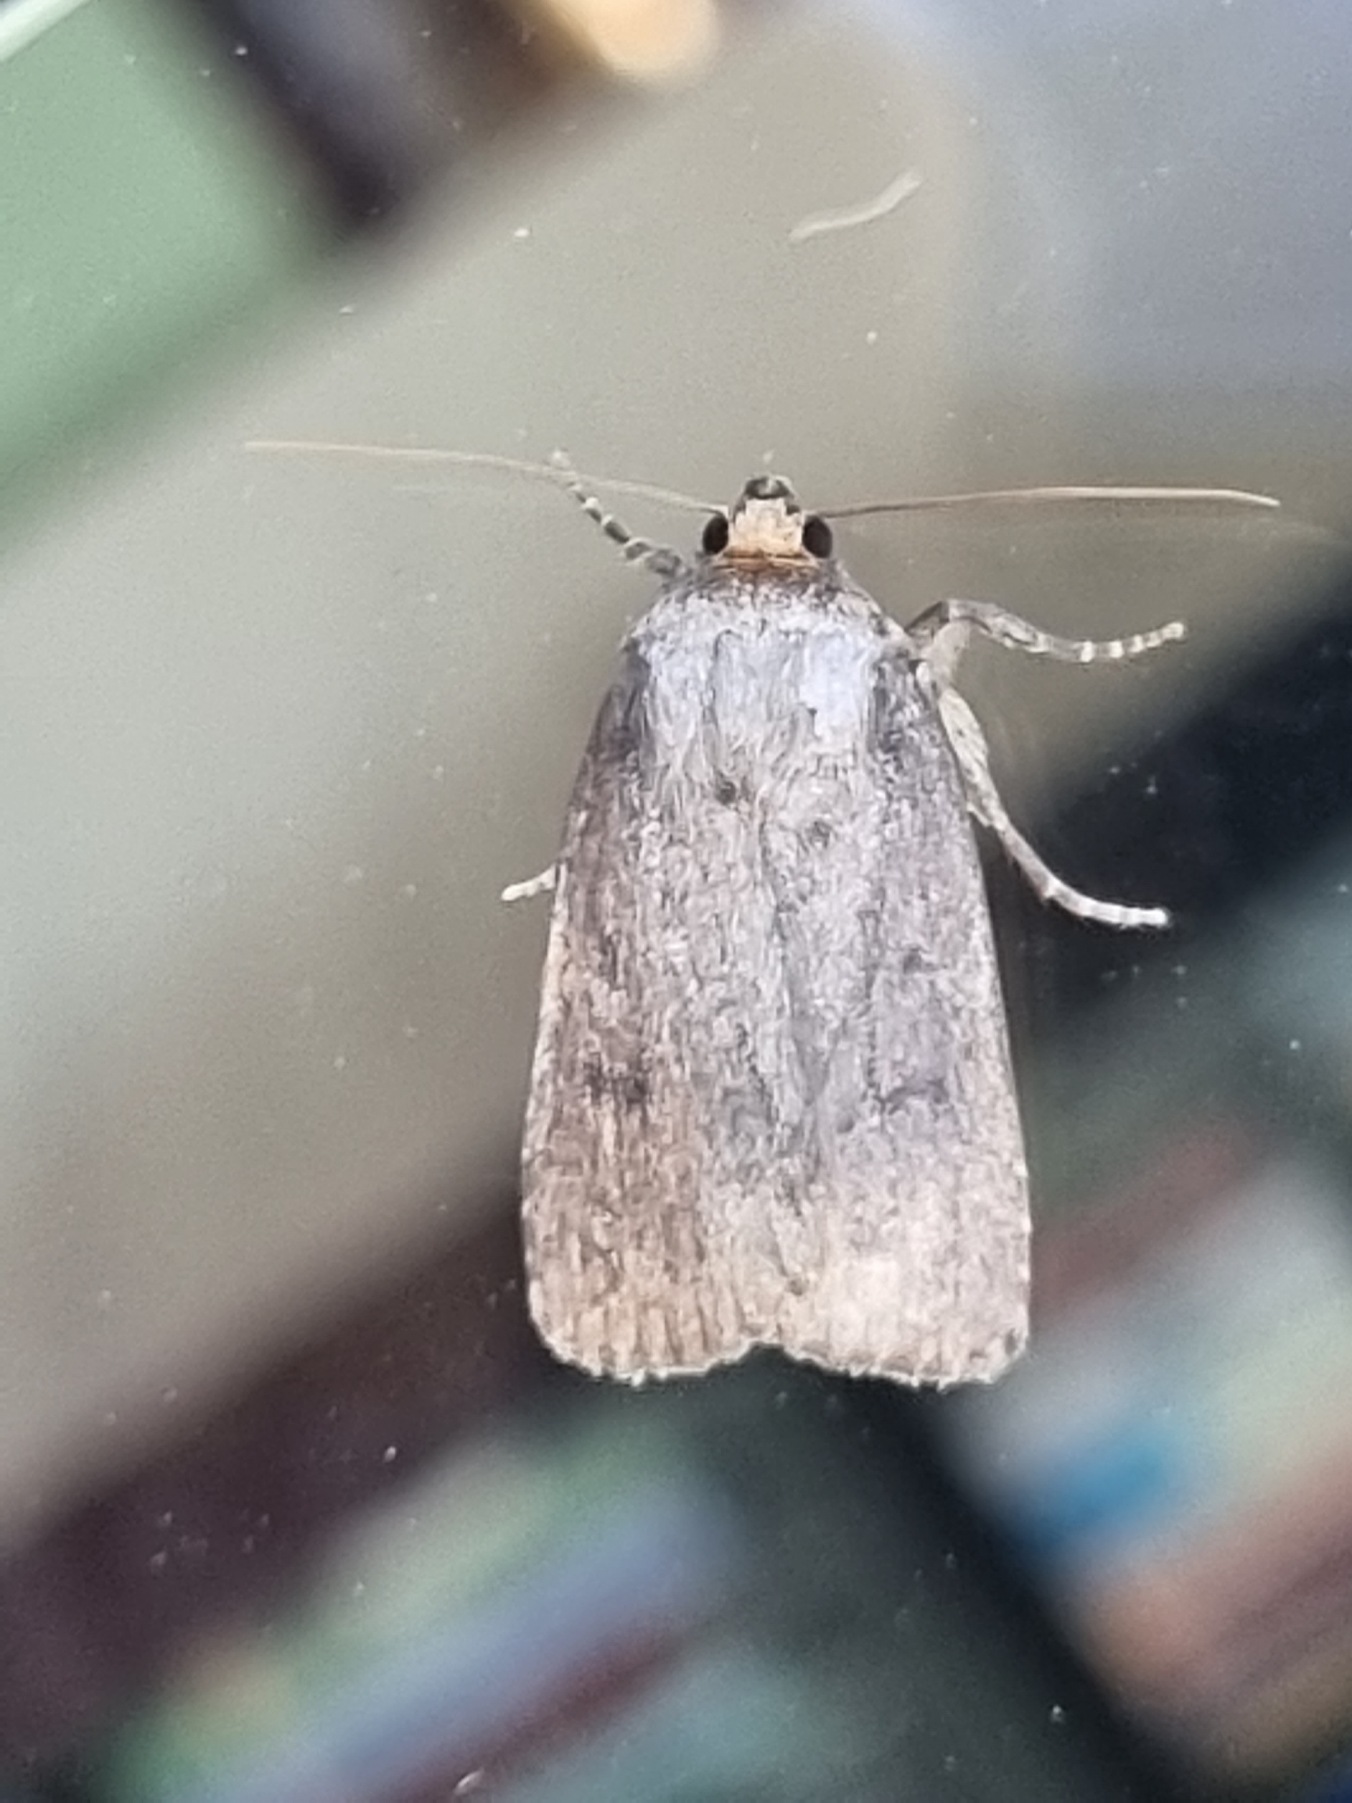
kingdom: Animalia
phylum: Arthropoda
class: Insecta
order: Lepidoptera
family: Noctuidae
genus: Amphipyra
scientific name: Amphipyra tragopoginis
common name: Blyantsugle
